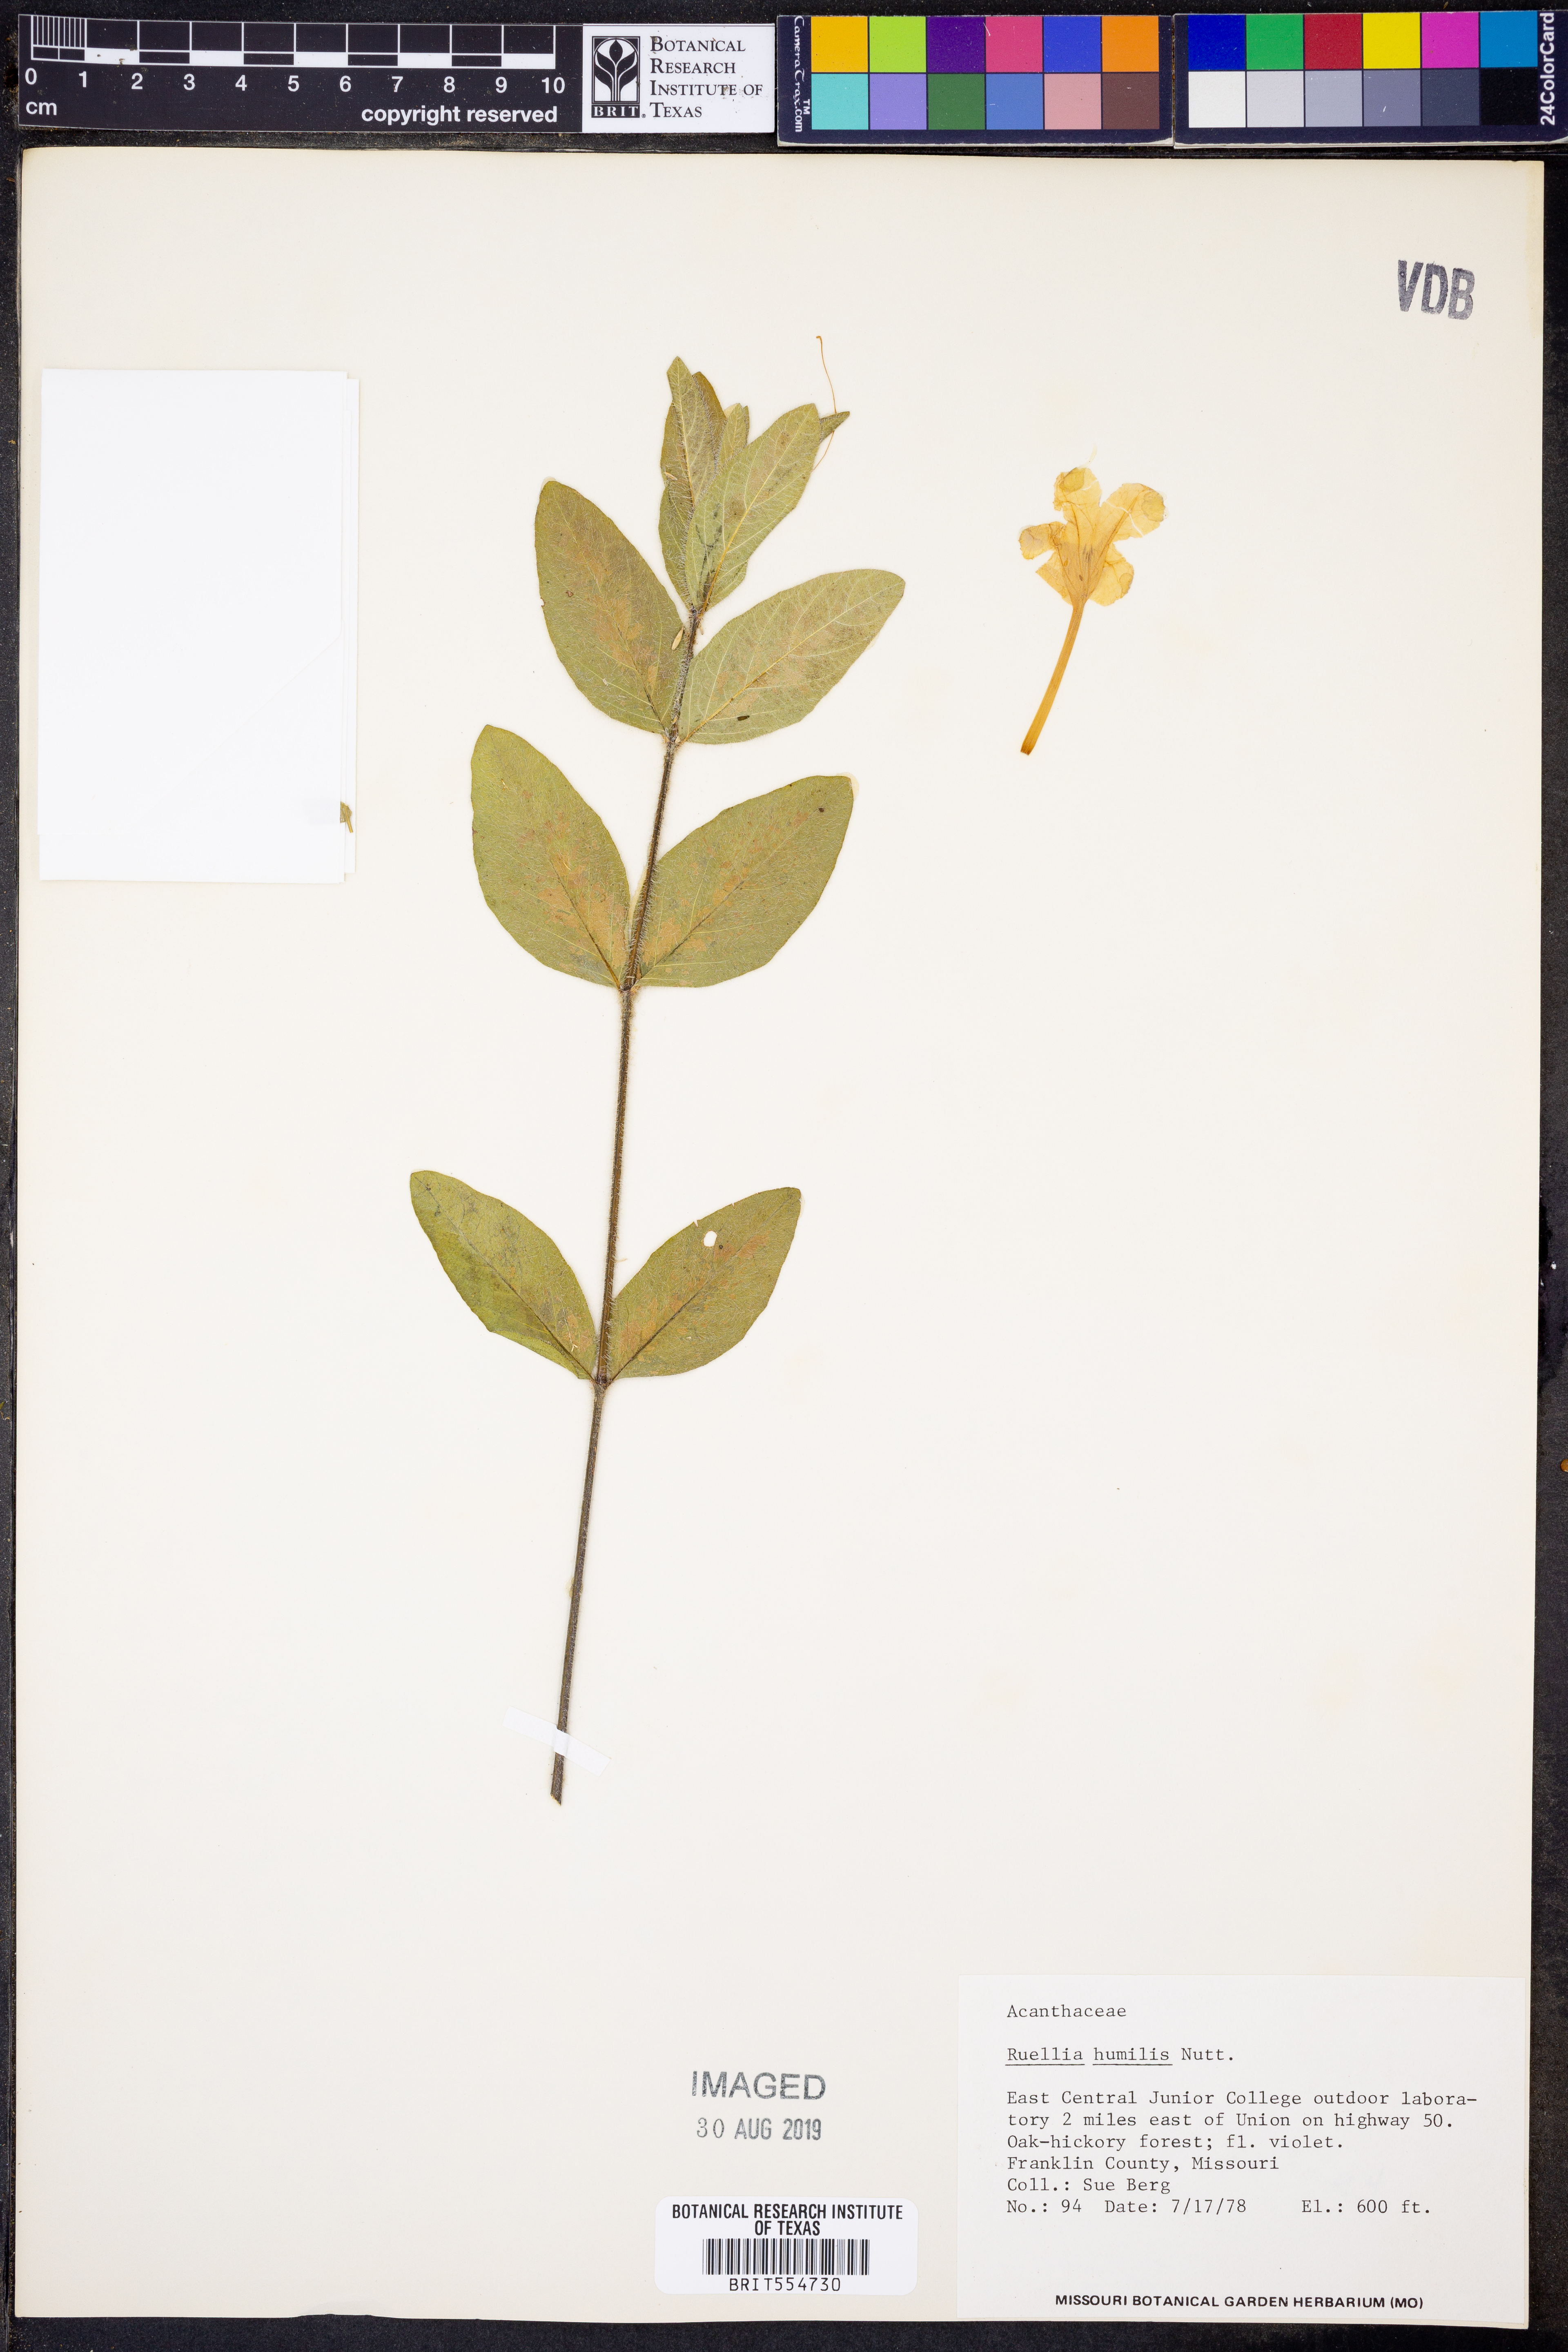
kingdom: Plantae
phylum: Tracheophyta
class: Magnoliopsida
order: Lamiales
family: Acanthaceae
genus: Ruellia
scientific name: Ruellia humilis
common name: Fringe-leaf ruellia
